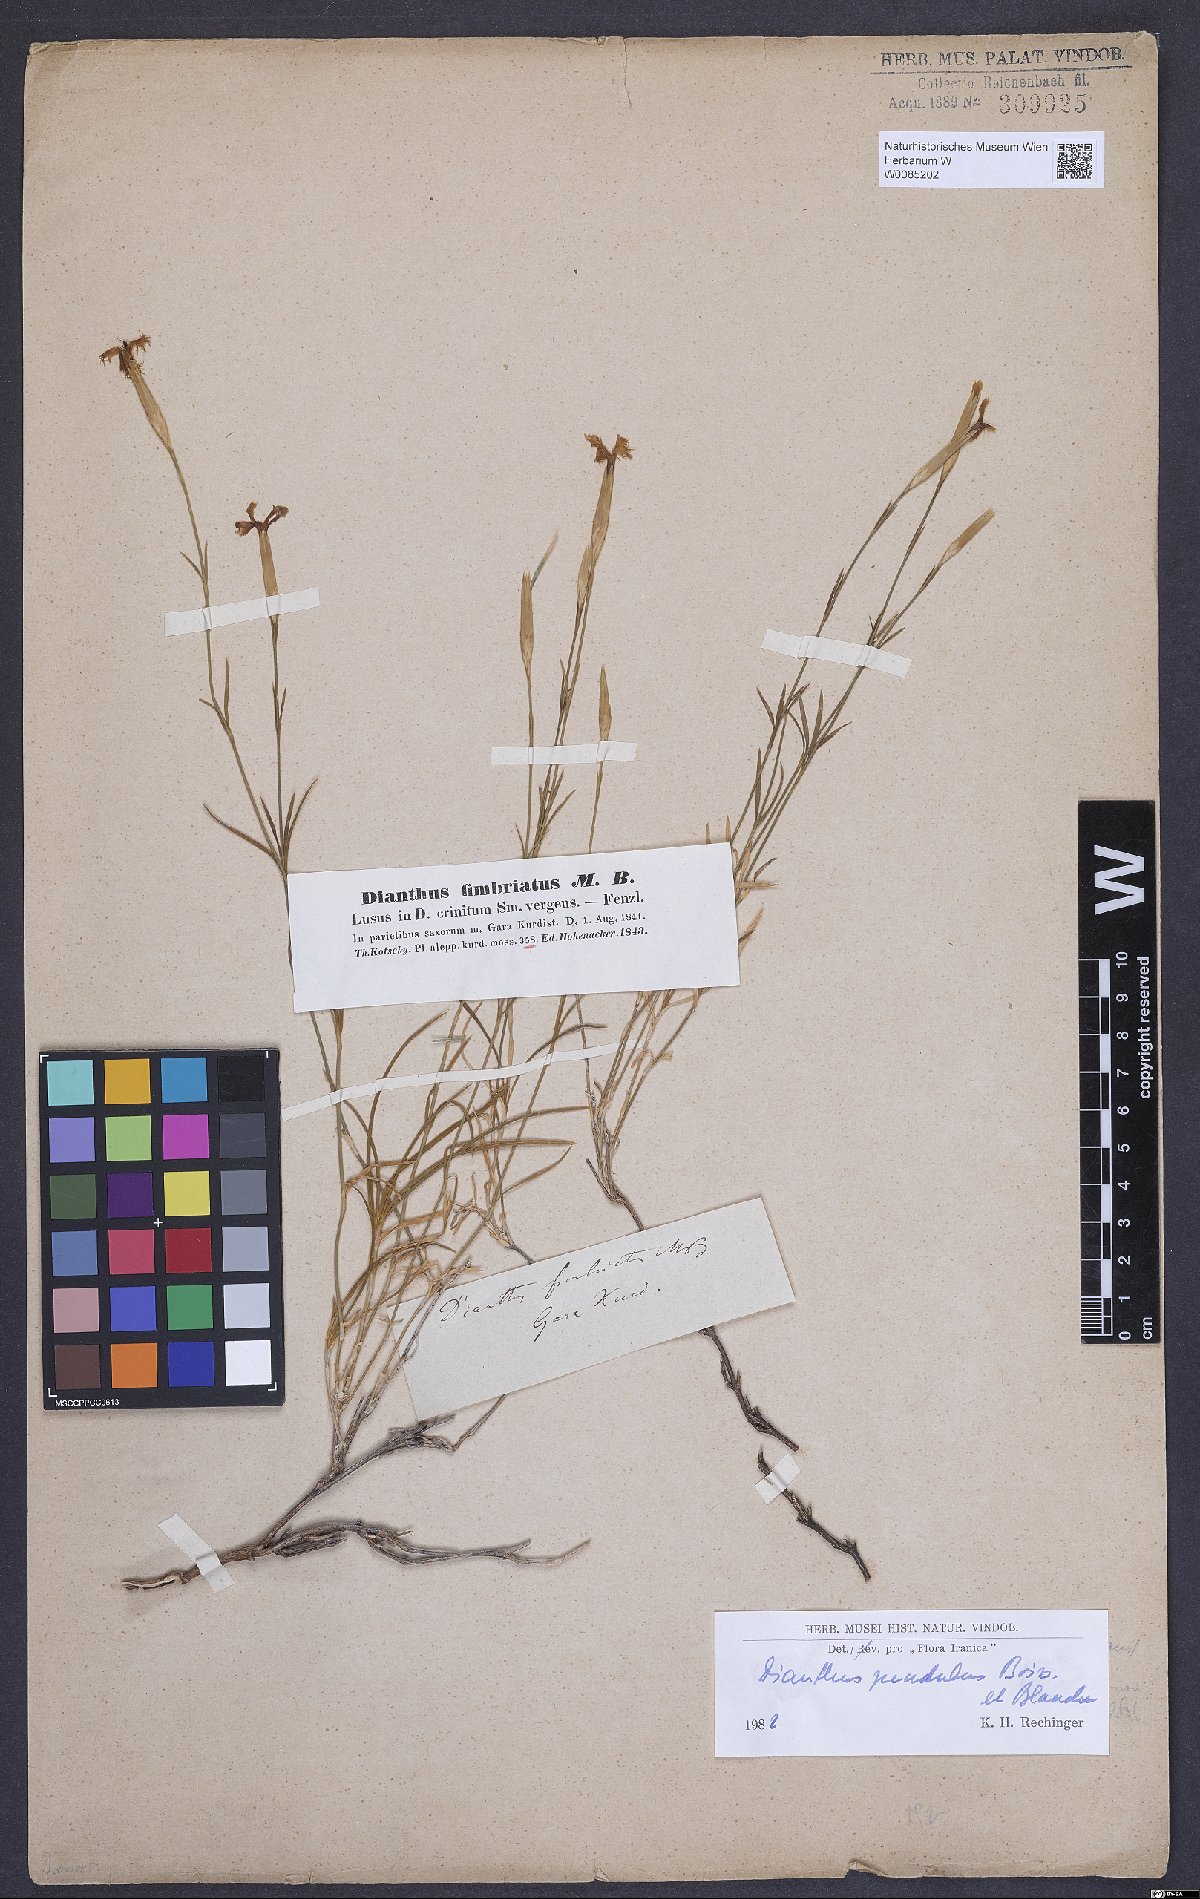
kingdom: Plantae
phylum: Tracheophyta
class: Magnoliopsida
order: Caryophyllales
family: Caryophyllaceae
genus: Dianthus
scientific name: Dianthus pendulus
